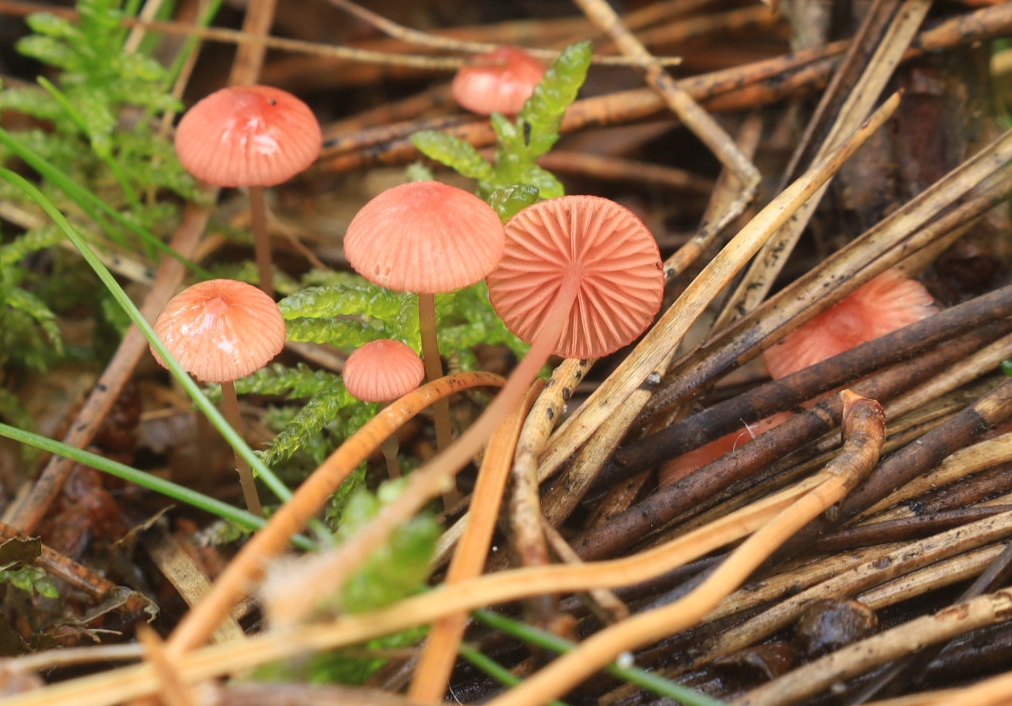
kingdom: Fungi
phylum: Basidiomycota
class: Agaricomycetes
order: Agaricales
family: Mycenaceae
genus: Mycena
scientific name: Mycena rosella
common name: rosenrød huesvamp
